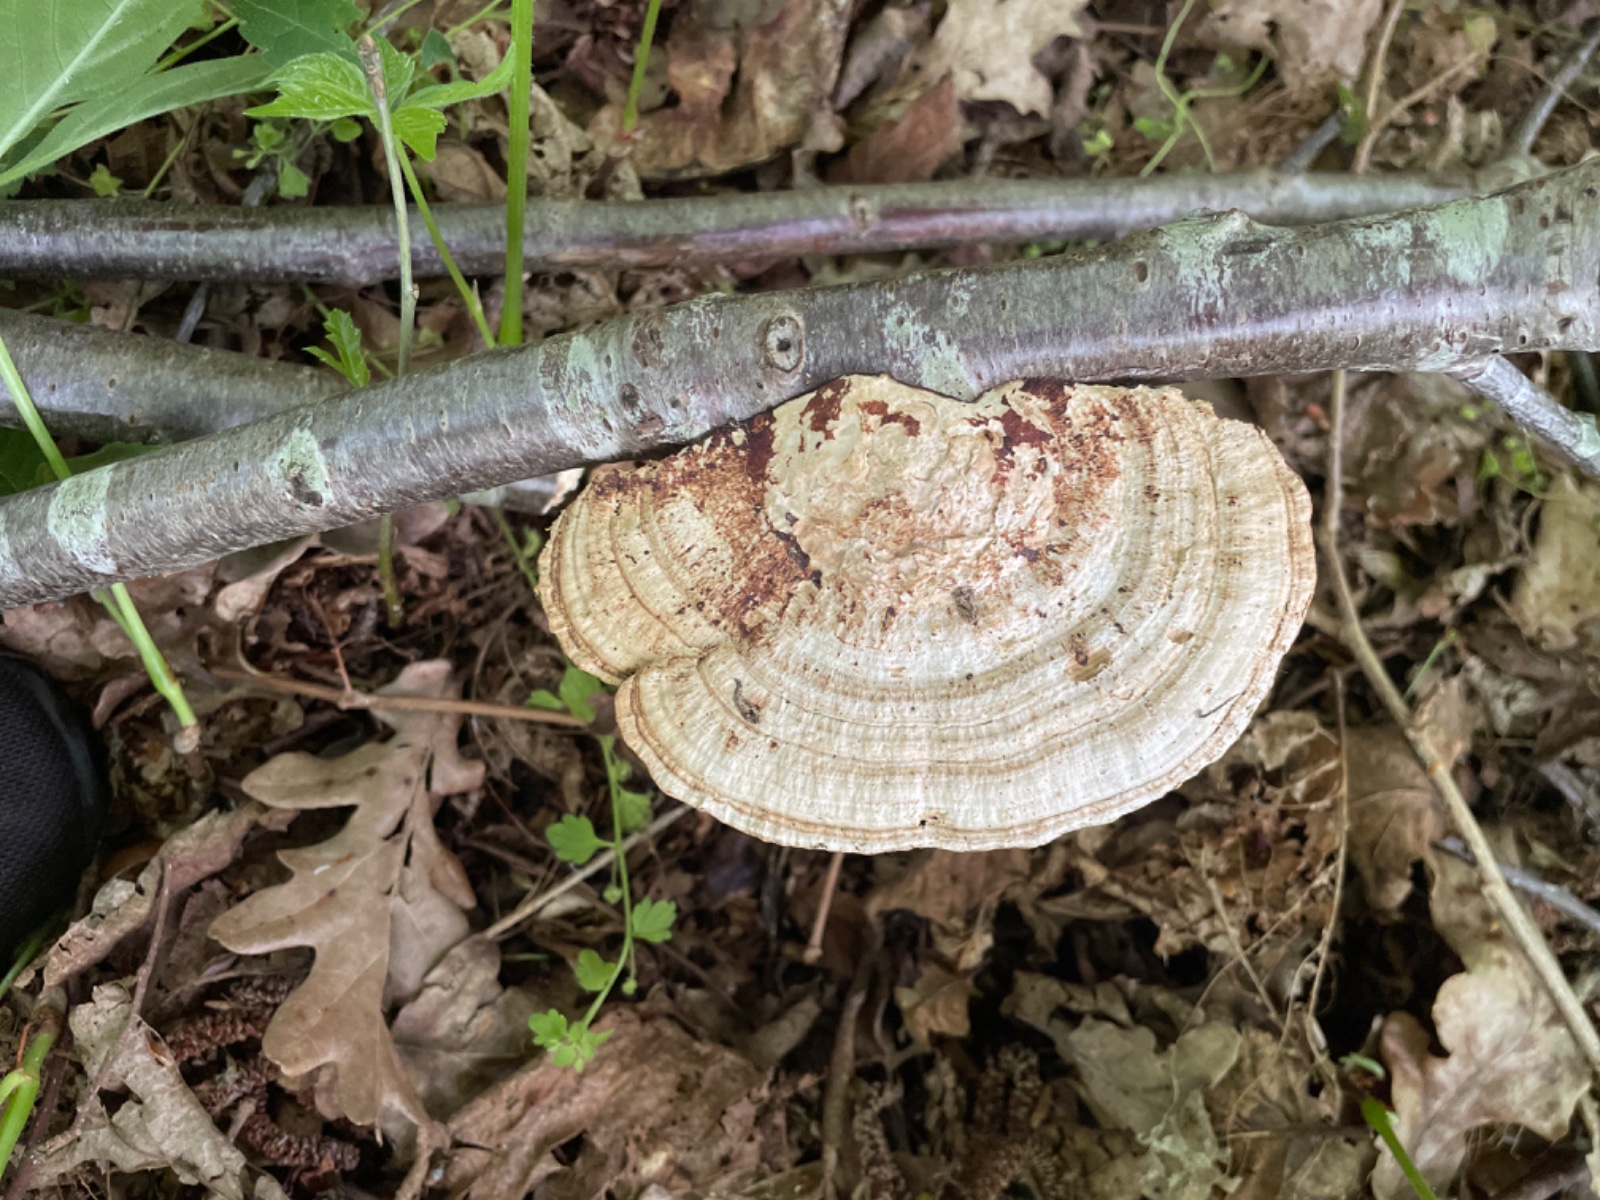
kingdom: Fungi
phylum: Basidiomycota
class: Agaricomycetes
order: Polyporales
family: Polyporaceae
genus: Daedaleopsis
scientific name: Daedaleopsis confragosa
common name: rødmende læderporesvamp
